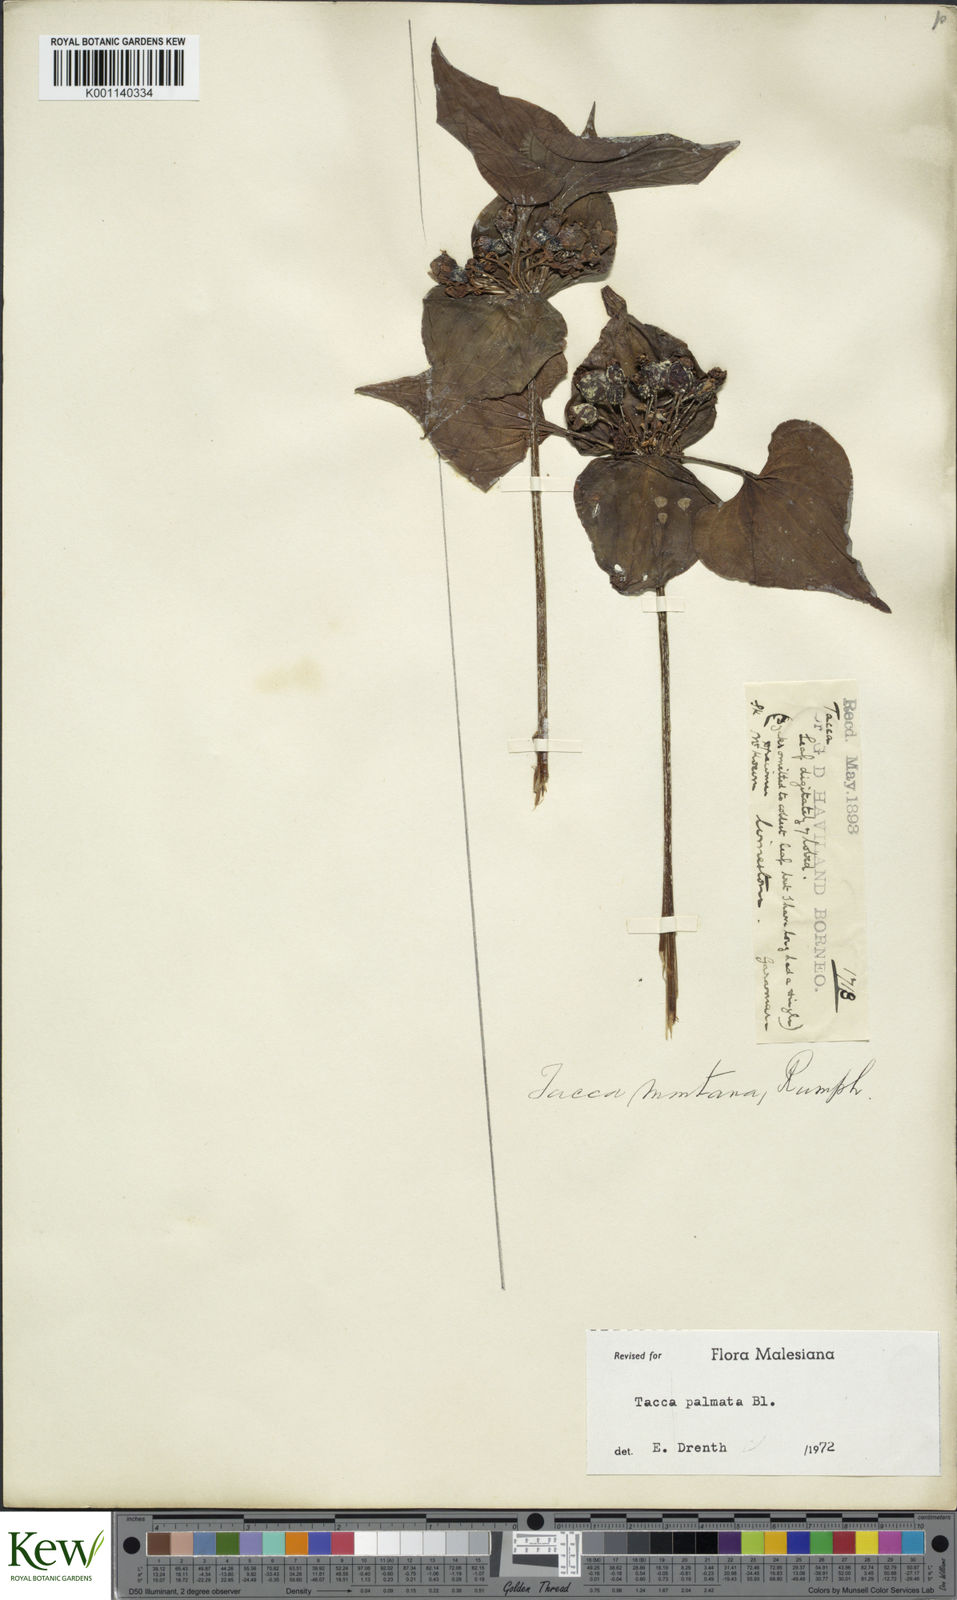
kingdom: Plantae
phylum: Tracheophyta
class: Liliopsida
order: Dioscoreales
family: Dioscoreaceae
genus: Tacca
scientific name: Tacca palmata
